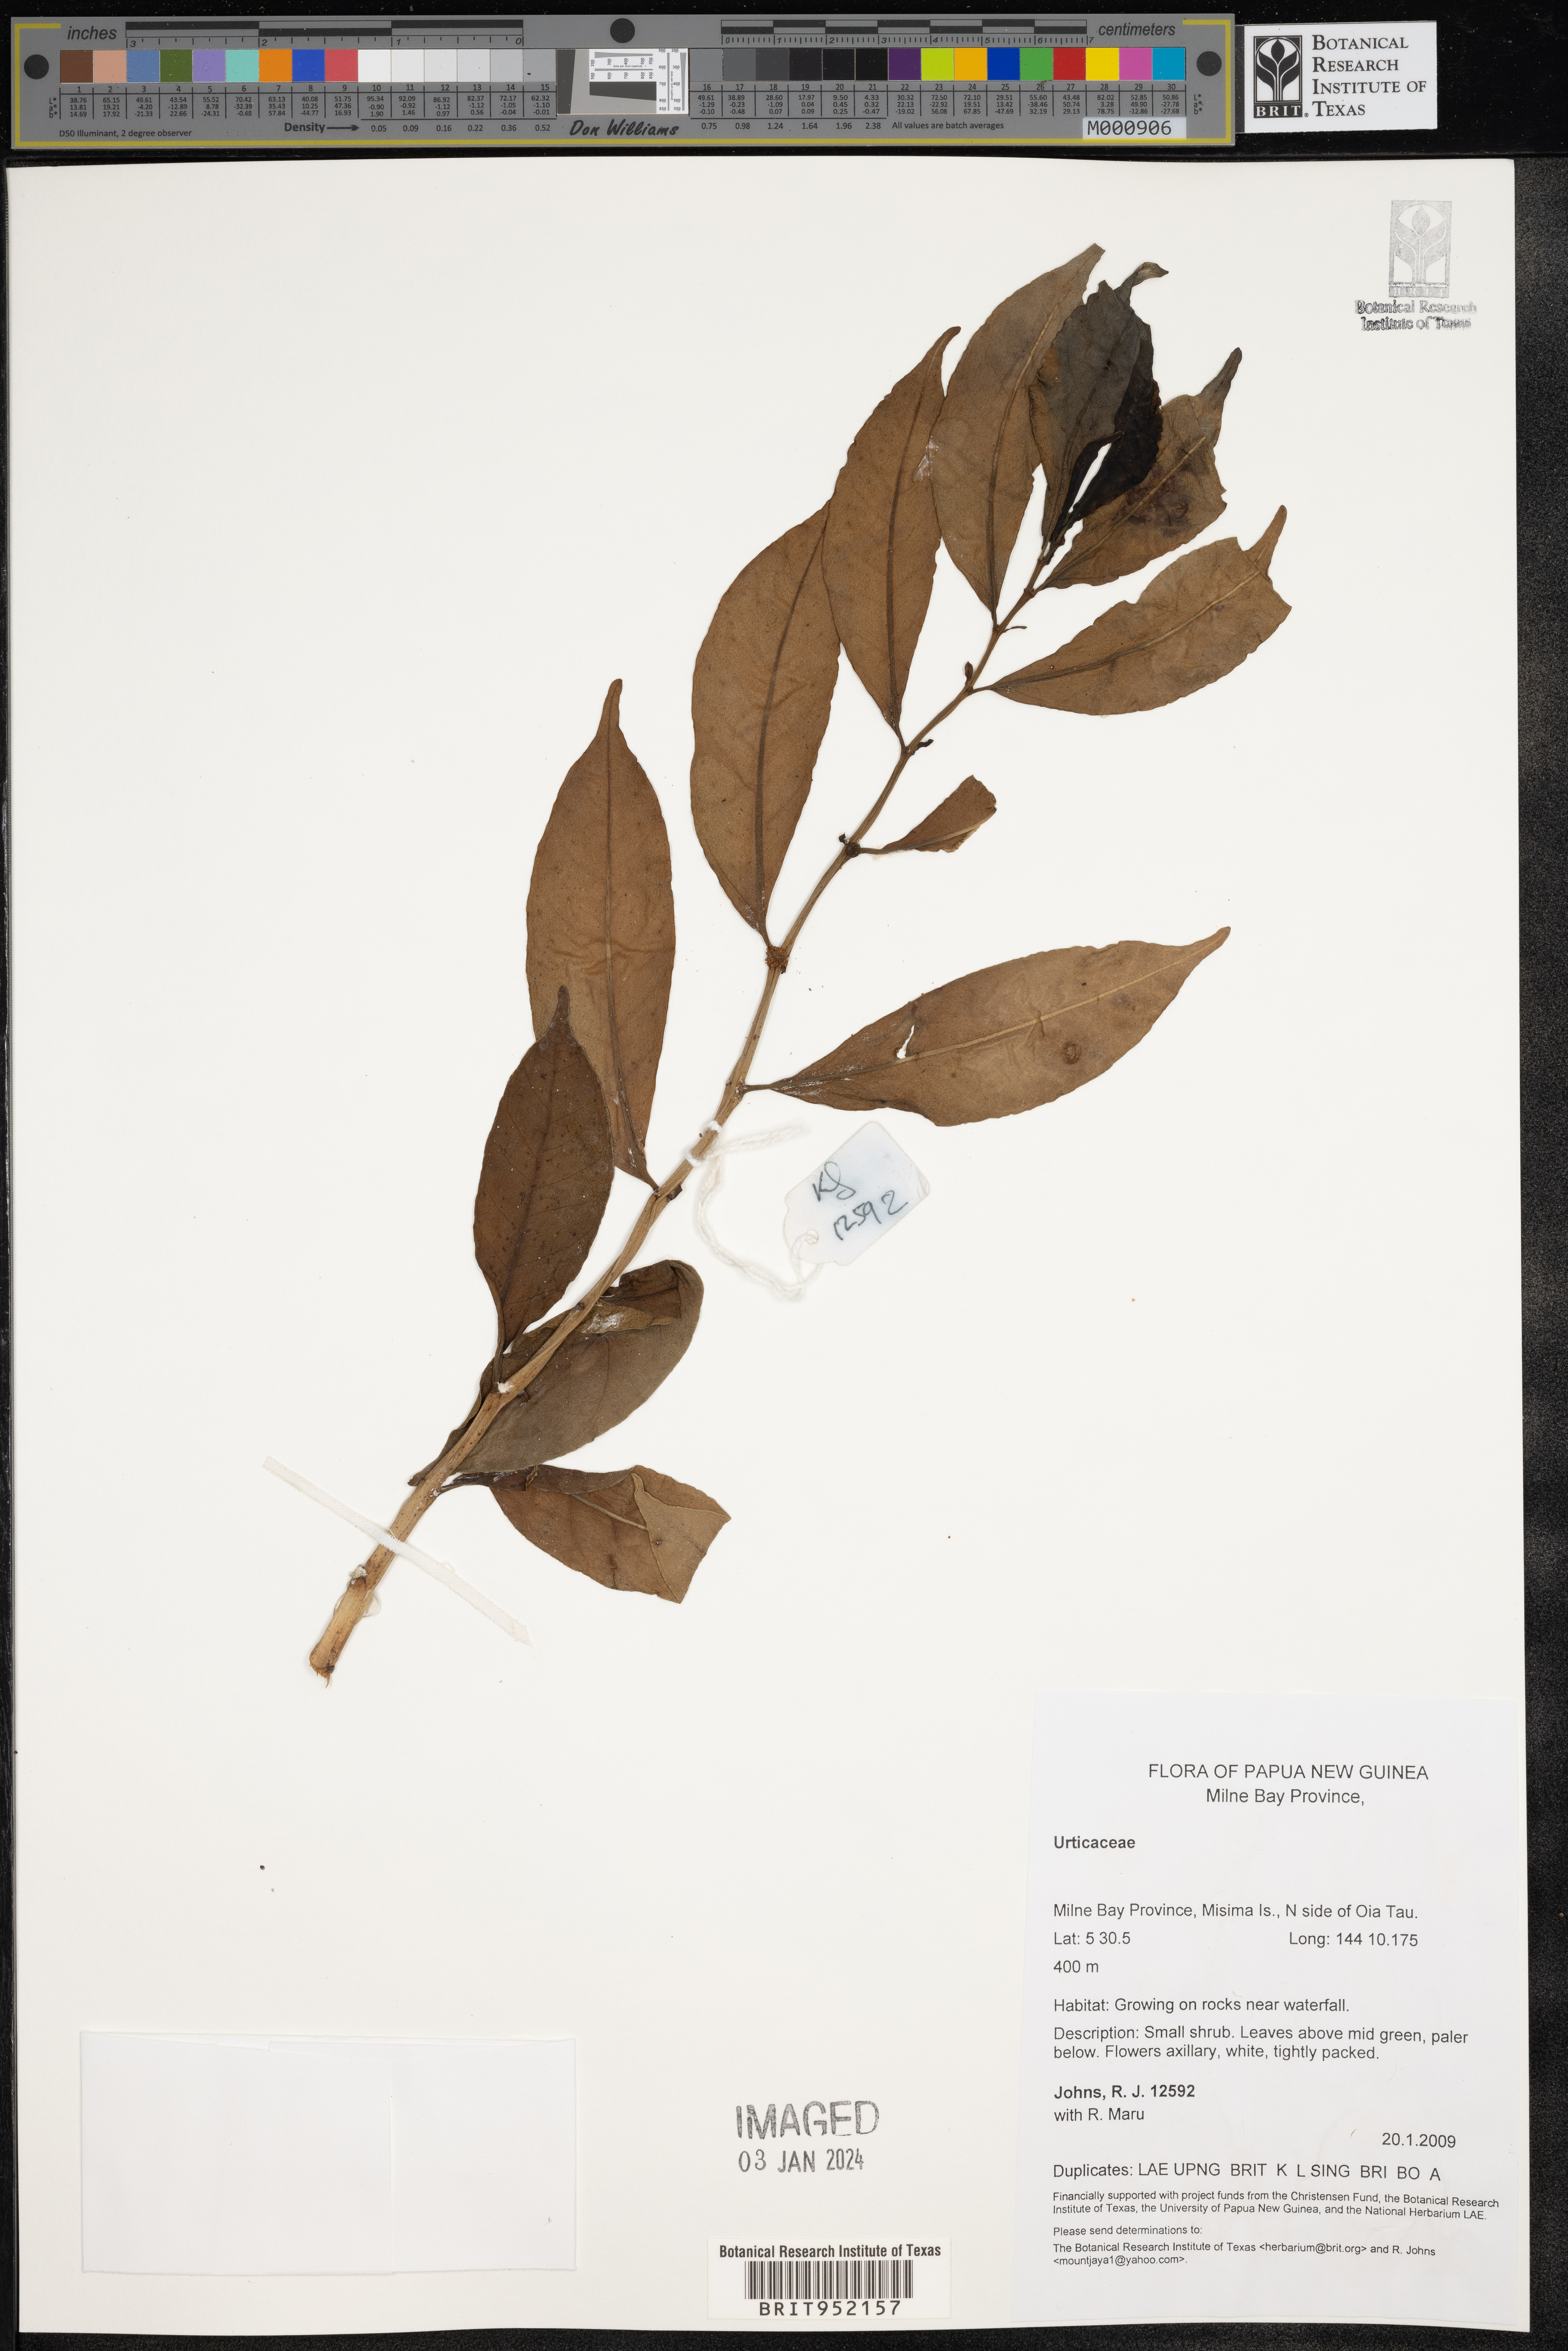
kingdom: Plantae
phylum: Tracheophyta
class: Magnoliopsida
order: Rosales
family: Urticaceae
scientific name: Urticaceae
